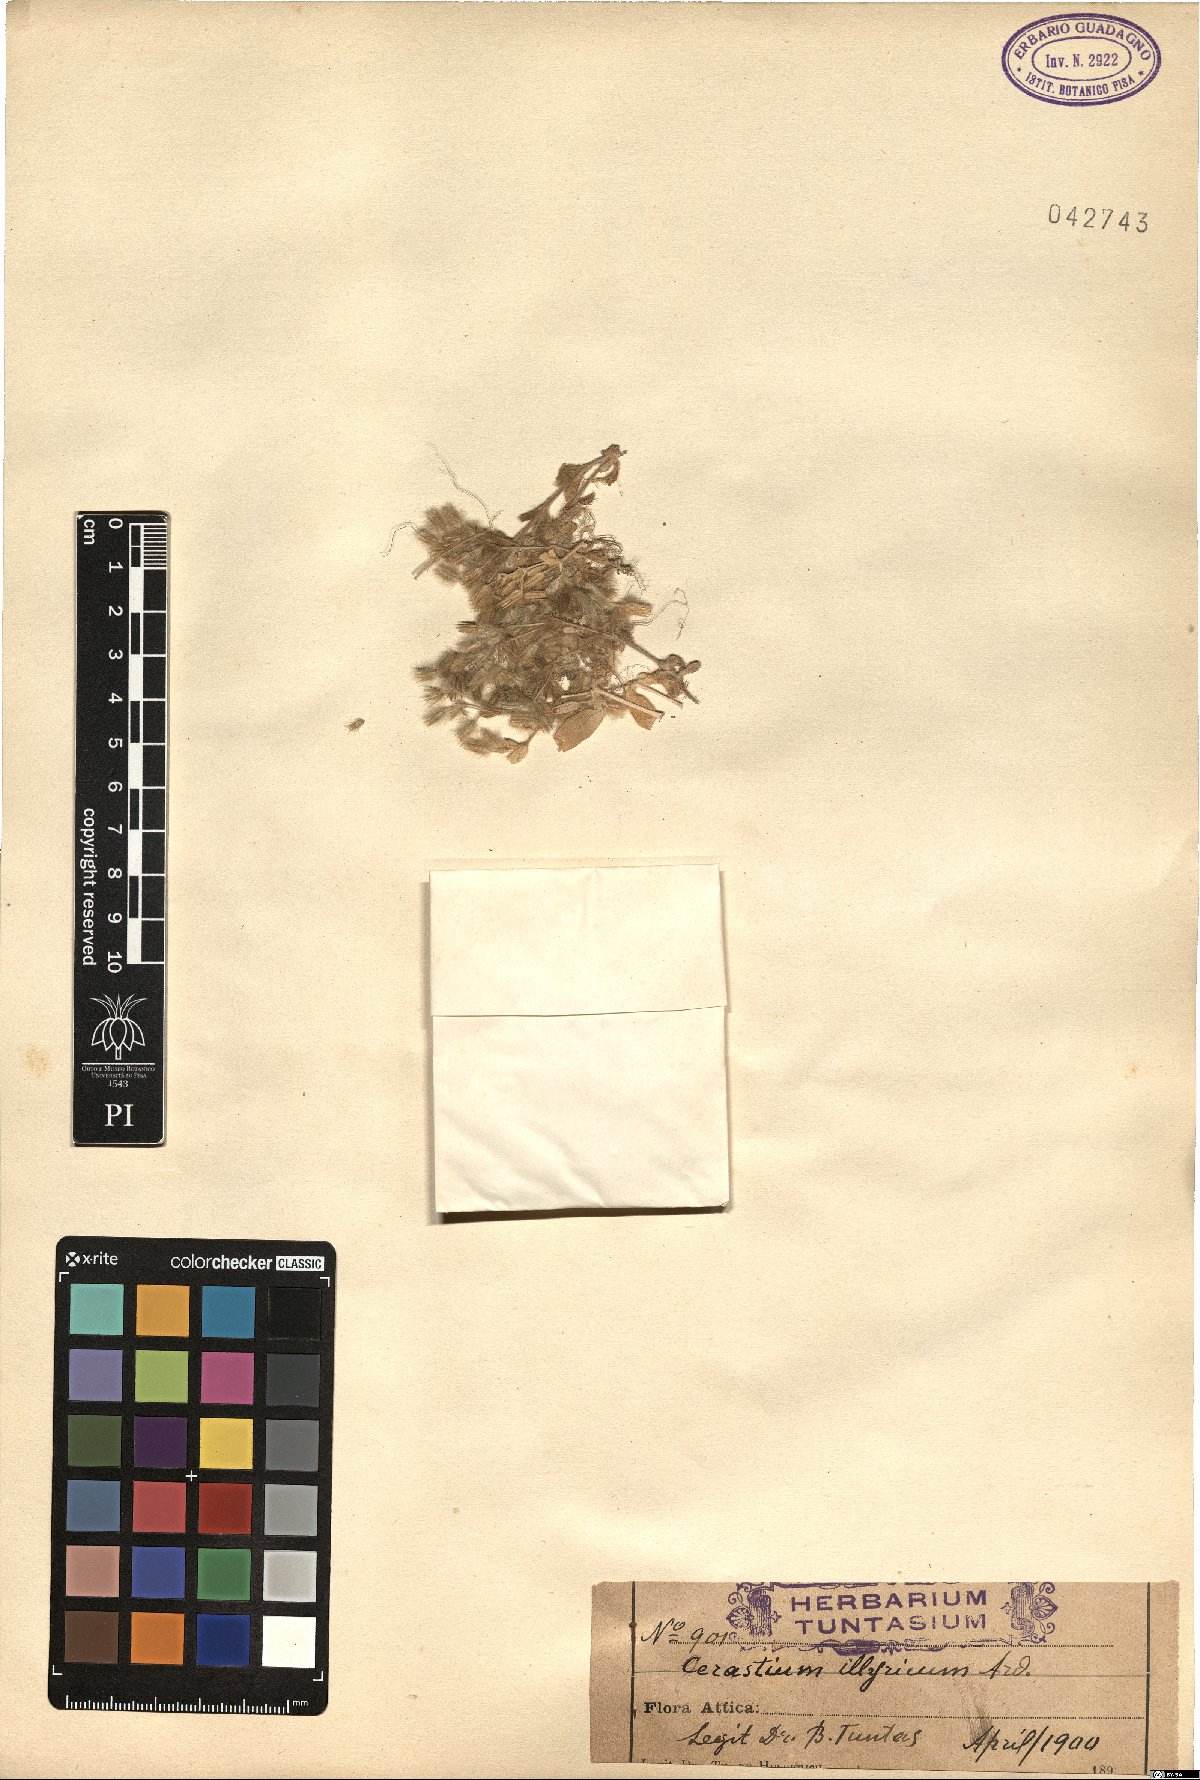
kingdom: Plantae
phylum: Tracheophyta
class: Magnoliopsida
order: Caryophyllales
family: Caryophyllaceae
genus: Cerastium
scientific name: Cerastium illyricum
